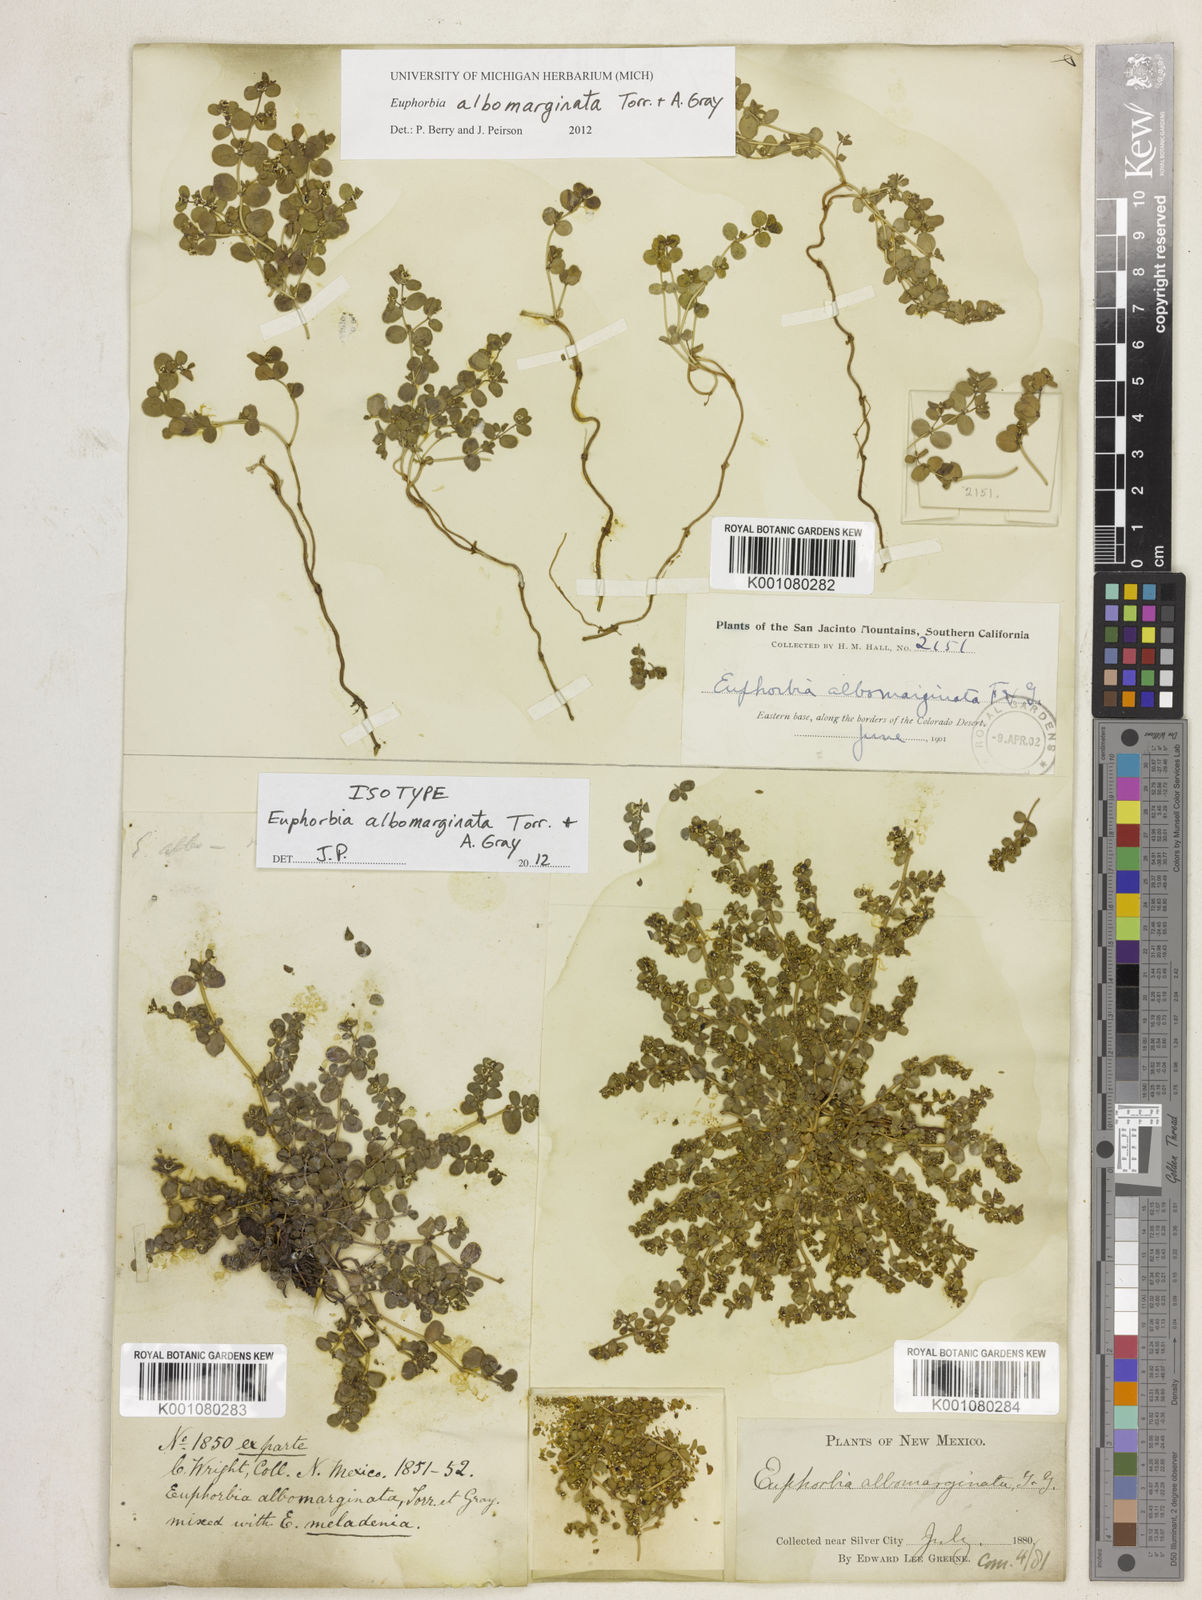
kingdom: Plantae
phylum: Tracheophyta
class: Magnoliopsida
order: Malpighiales
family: Euphorbiaceae
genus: Euphorbia
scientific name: Euphorbia
